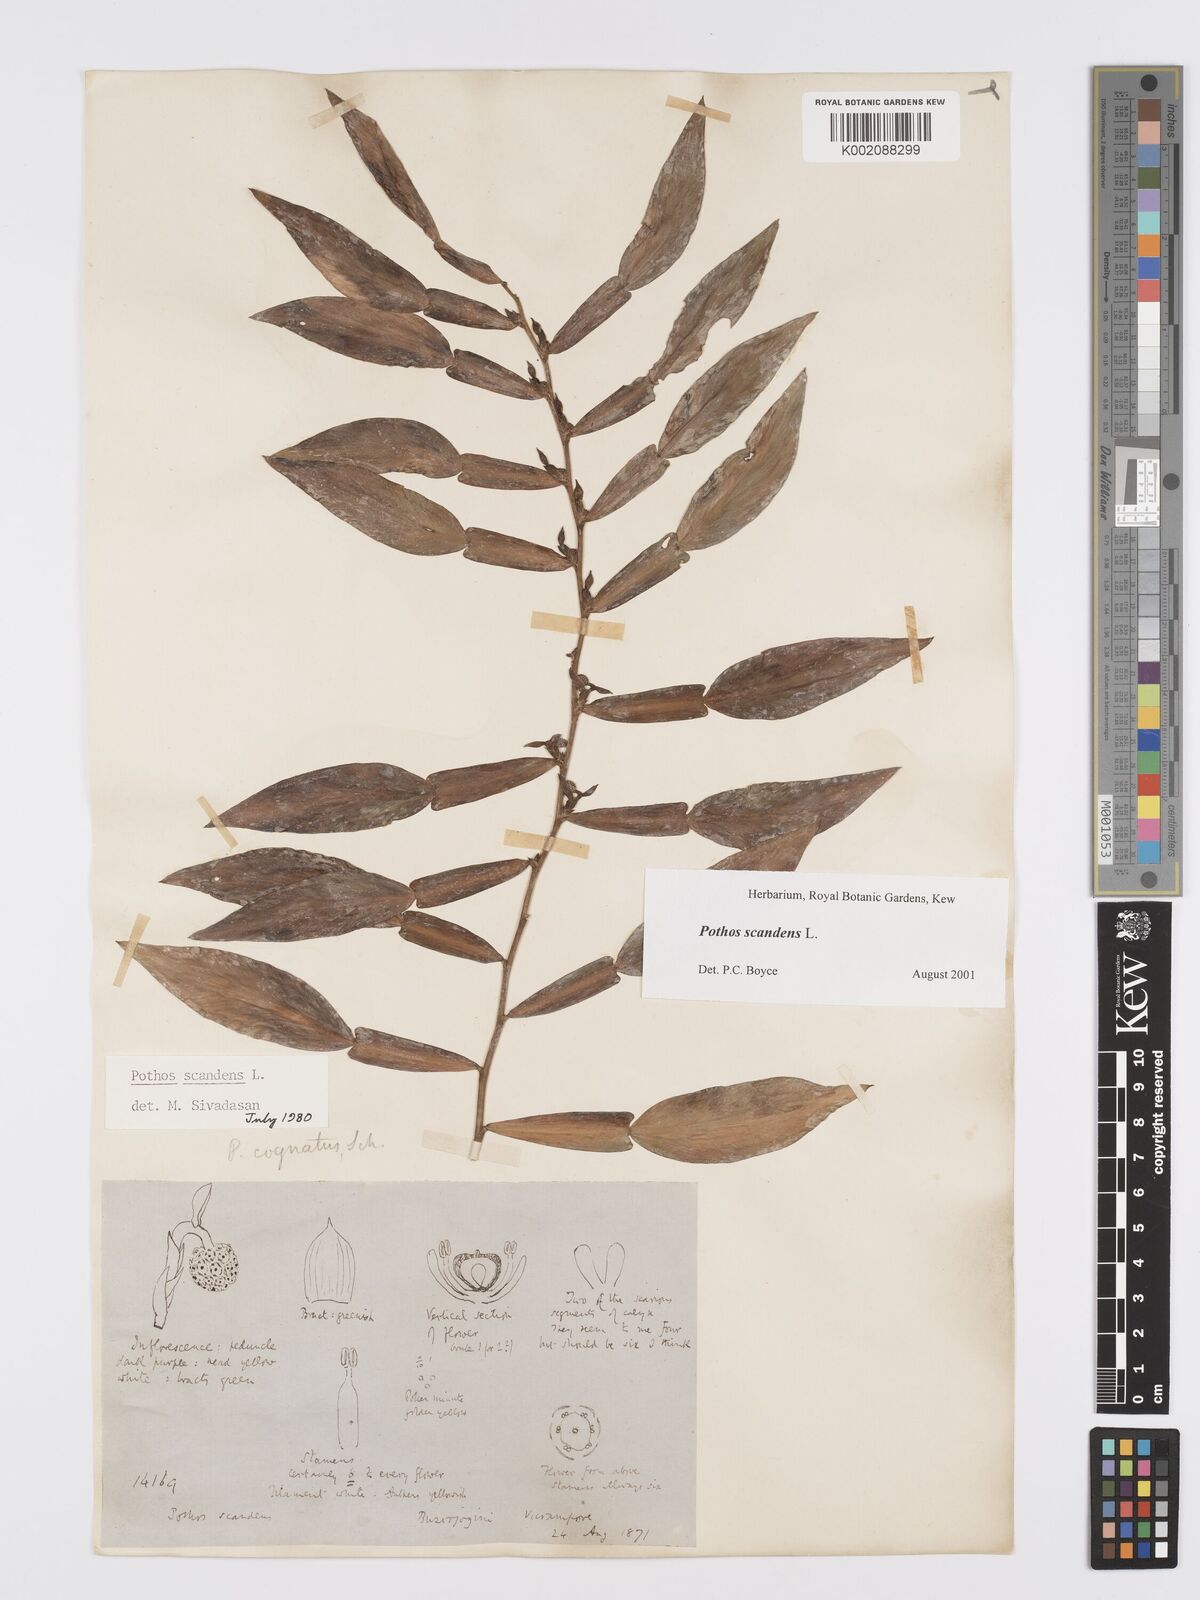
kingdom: Plantae
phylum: Tracheophyta
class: Liliopsida
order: Alismatales
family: Araceae
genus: Pothos
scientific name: Pothos scandens
